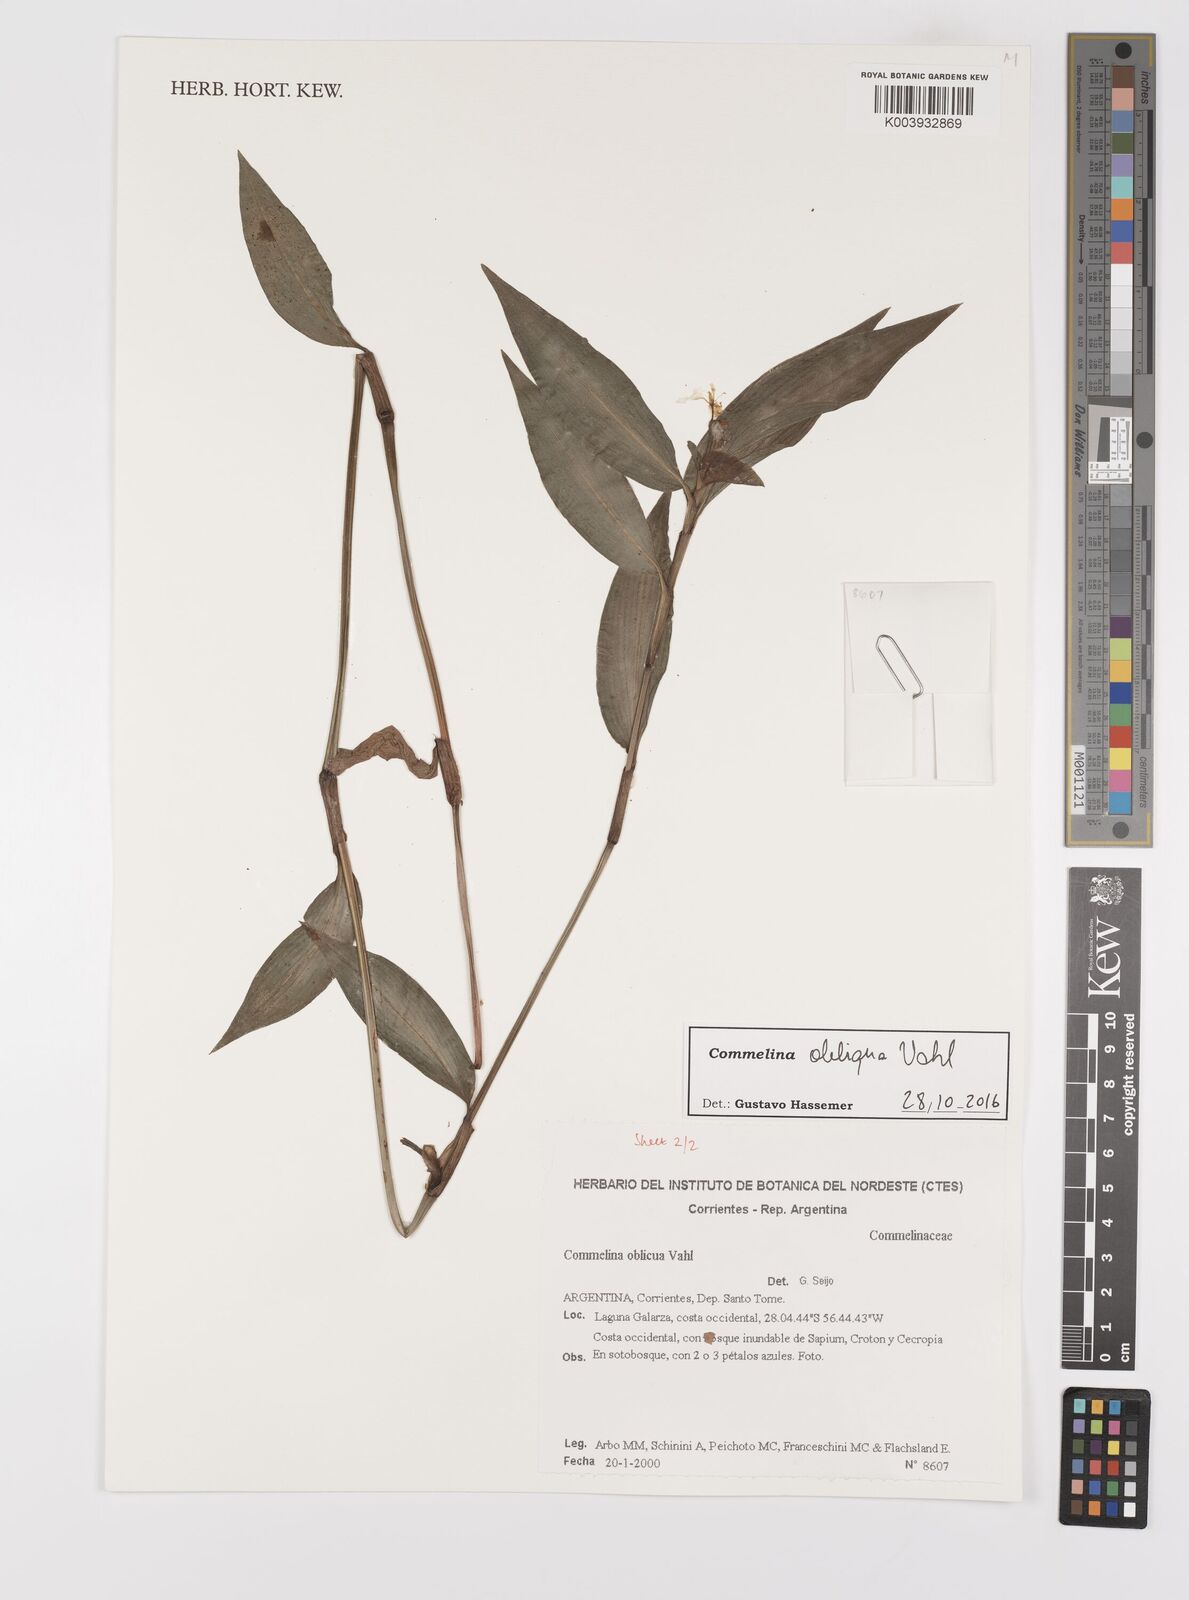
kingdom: Plantae
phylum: Tracheophyta
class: Liliopsida
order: Commelinales
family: Commelinaceae
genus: Commelina
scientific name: Commelina diffusa
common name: Climbing dayflower
